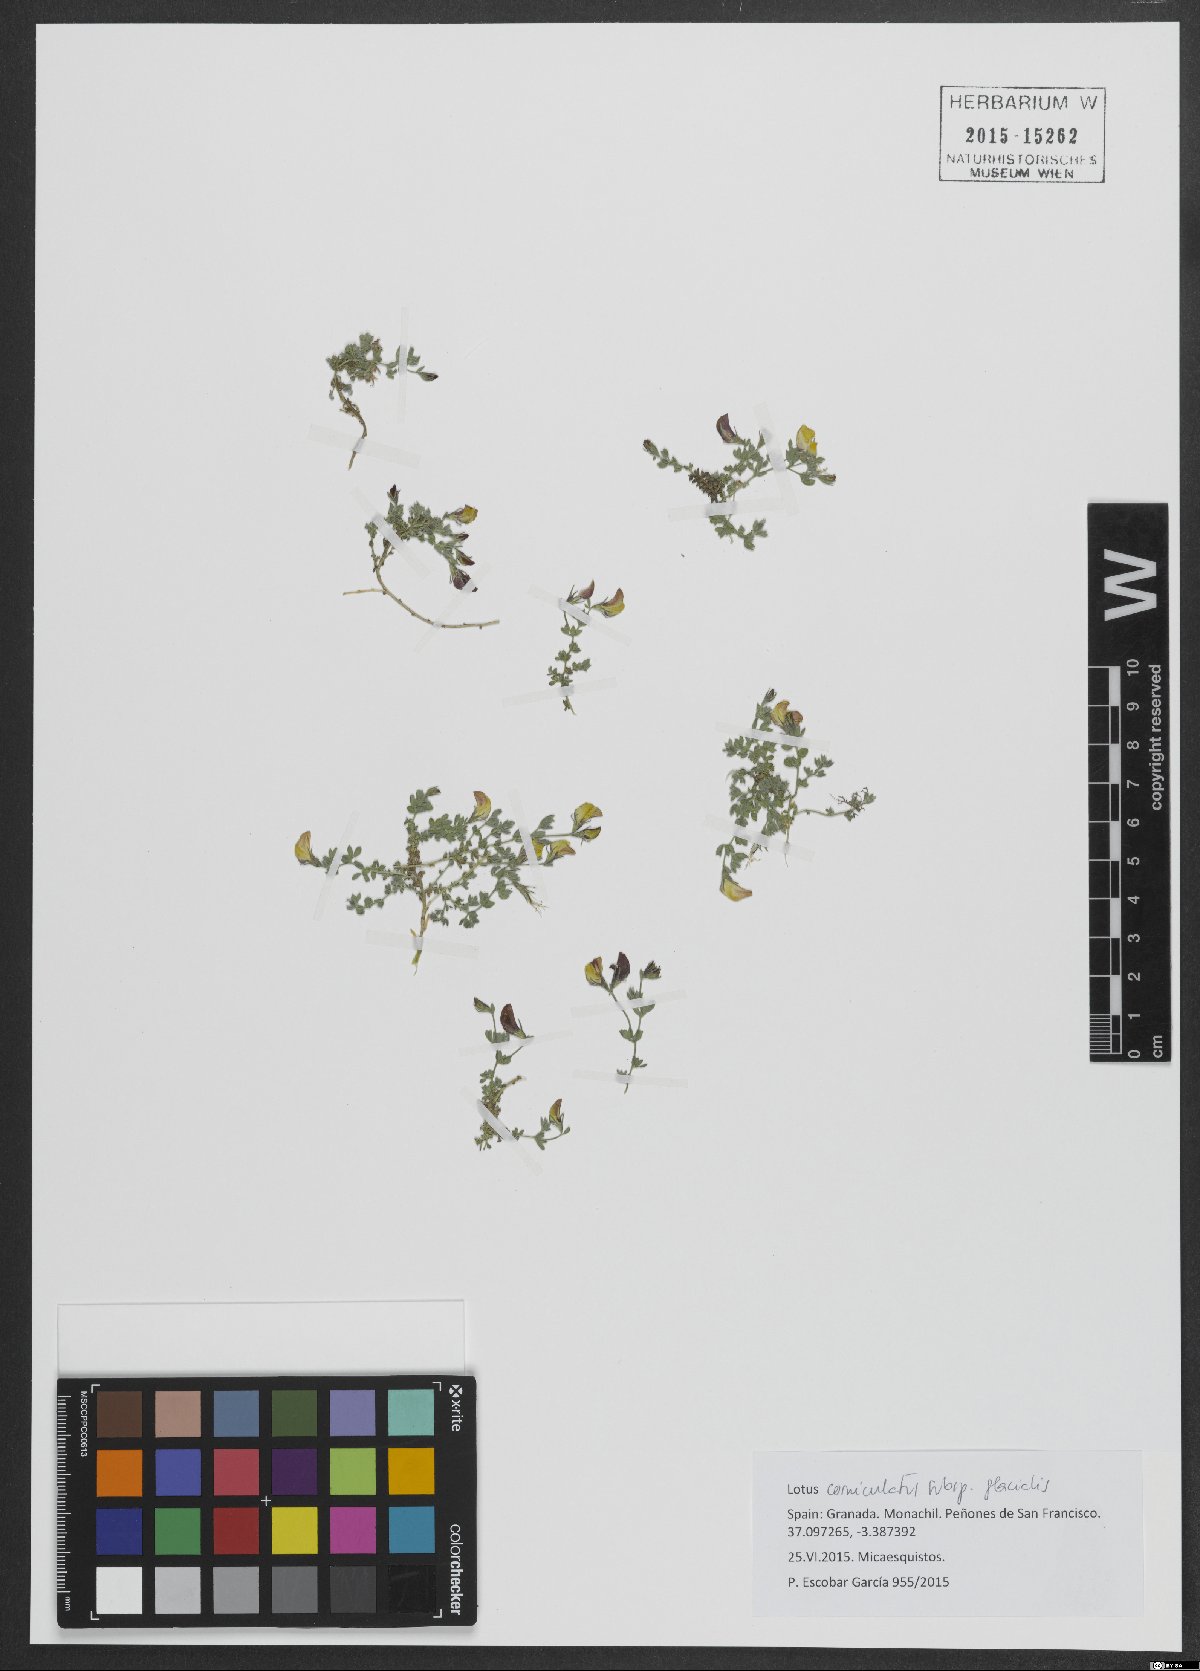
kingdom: Plantae
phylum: Tracheophyta
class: Magnoliopsida
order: Fabales
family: Fabaceae
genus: Lotus
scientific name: Lotus glacialis
